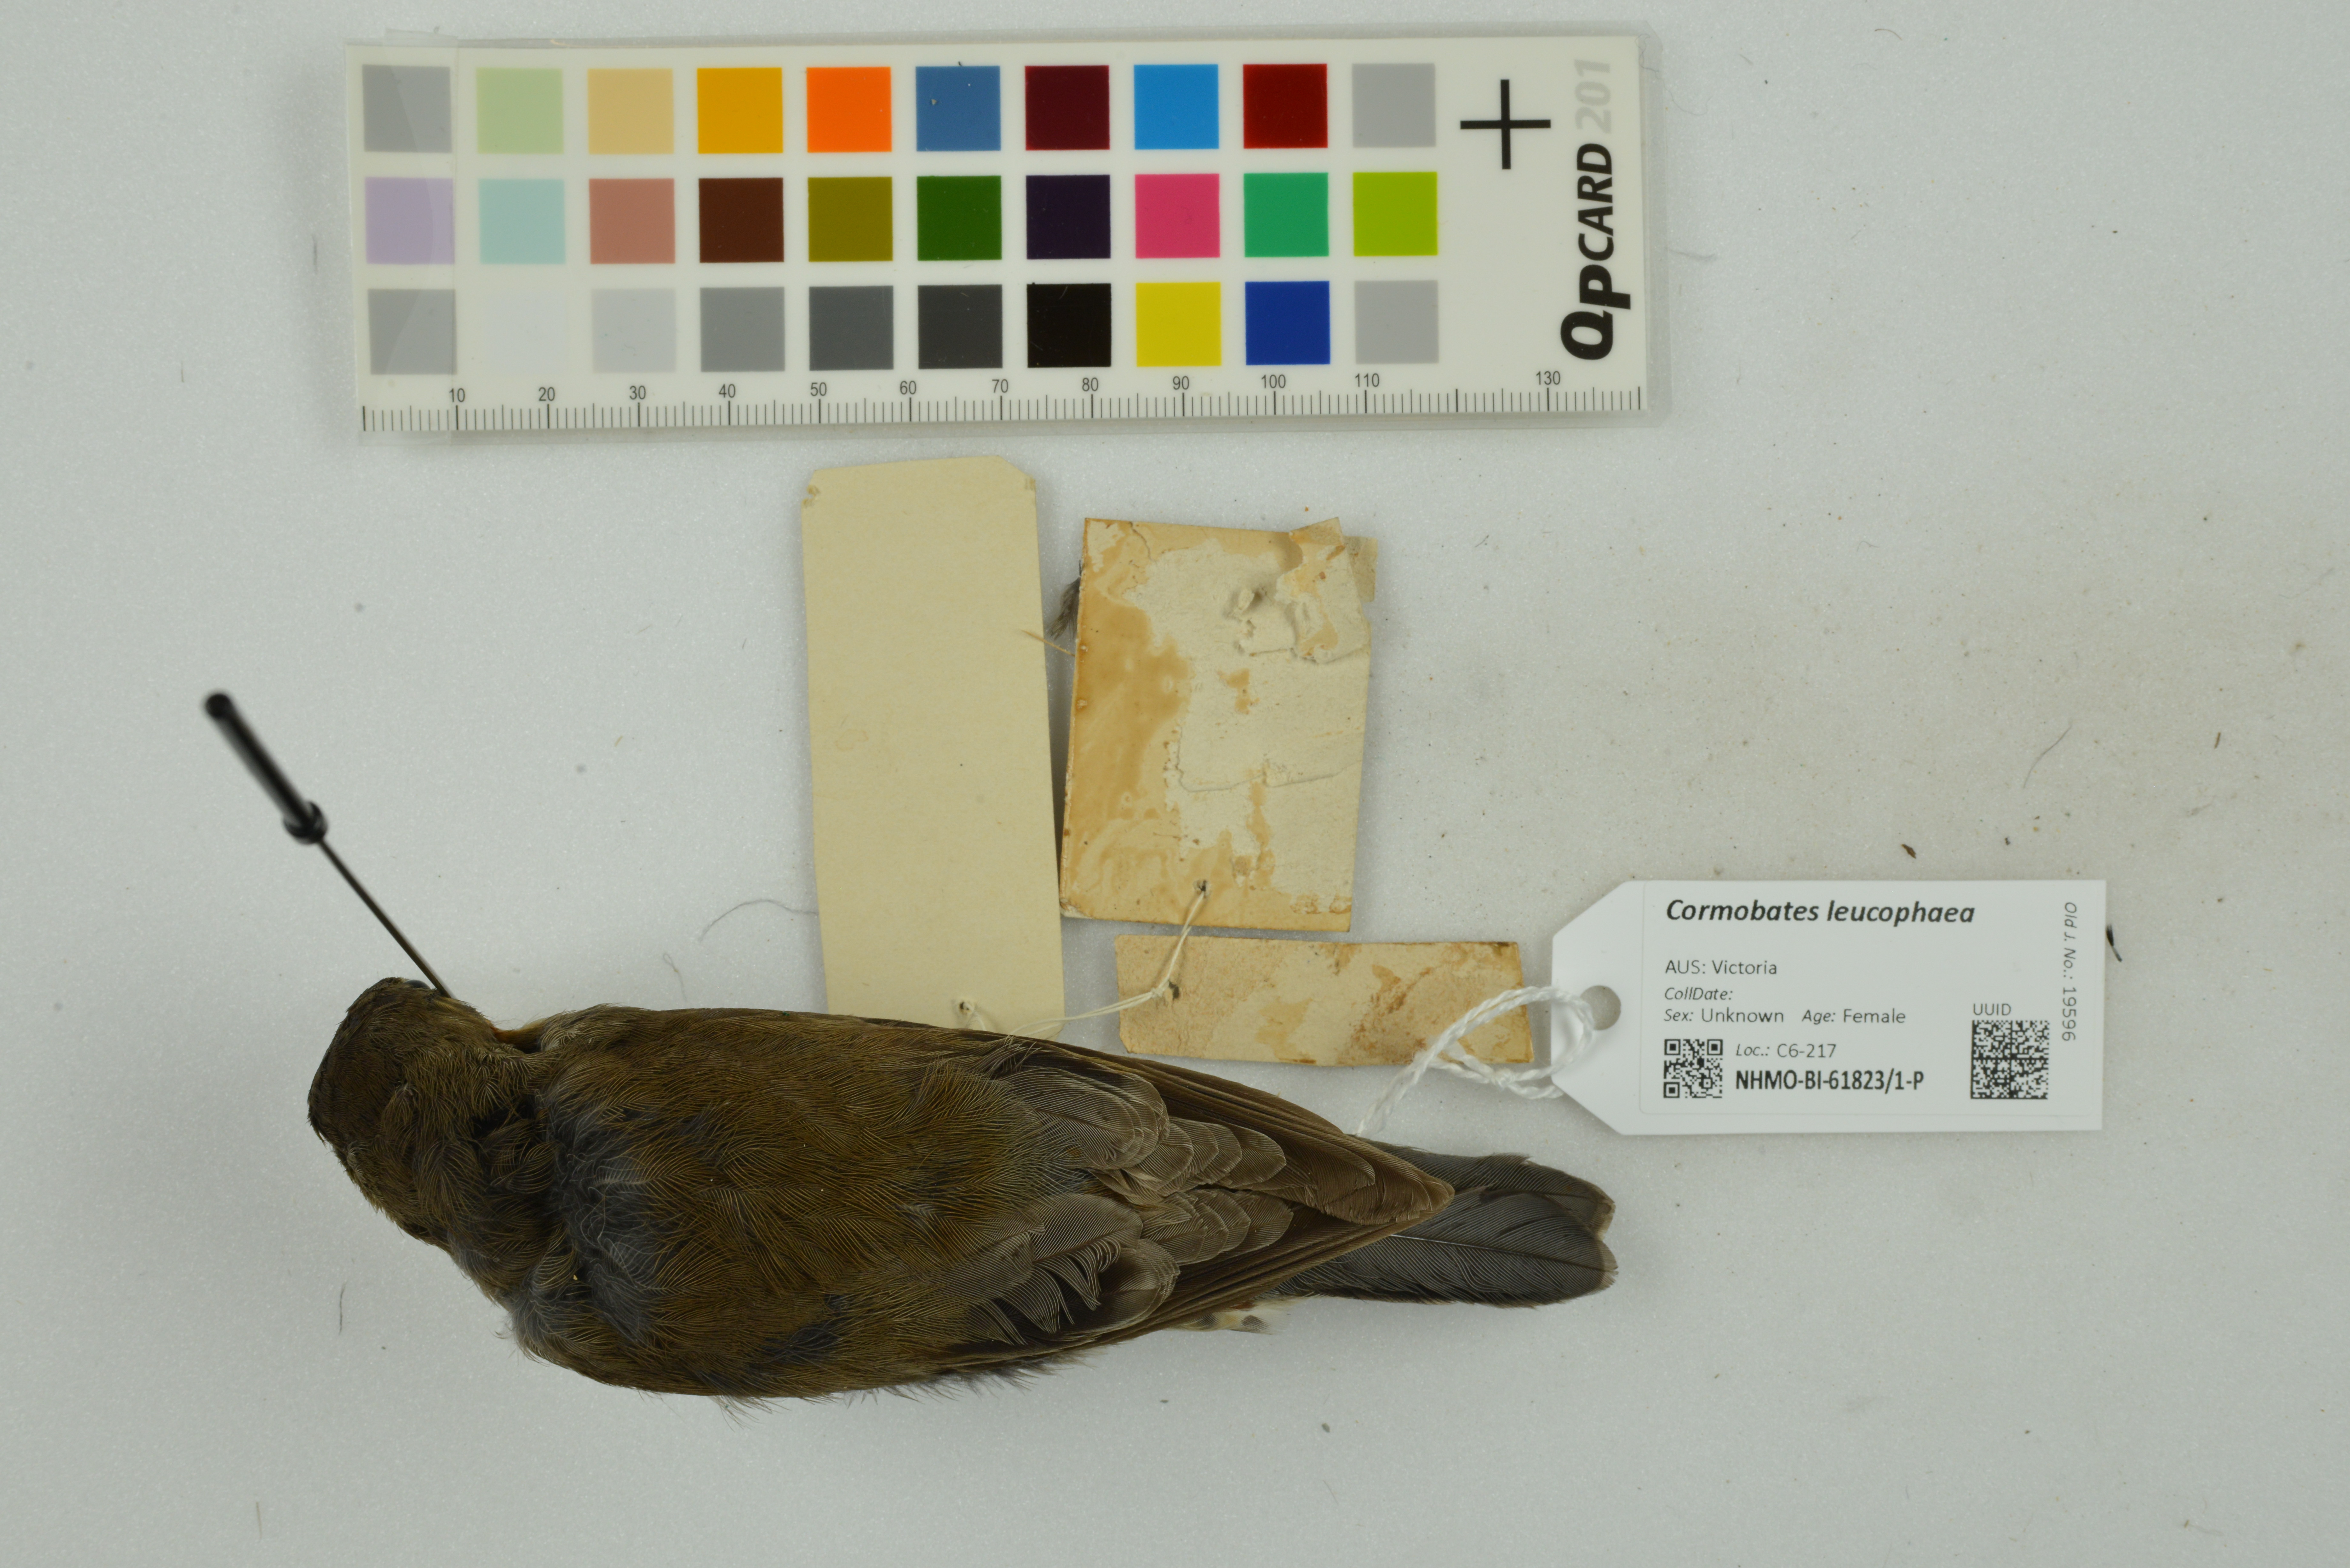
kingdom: Animalia
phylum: Chordata
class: Aves
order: Passeriformes
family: Climacteridae
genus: Cormobates
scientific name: Cormobates leucophaea
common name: White-throated treecreeper
